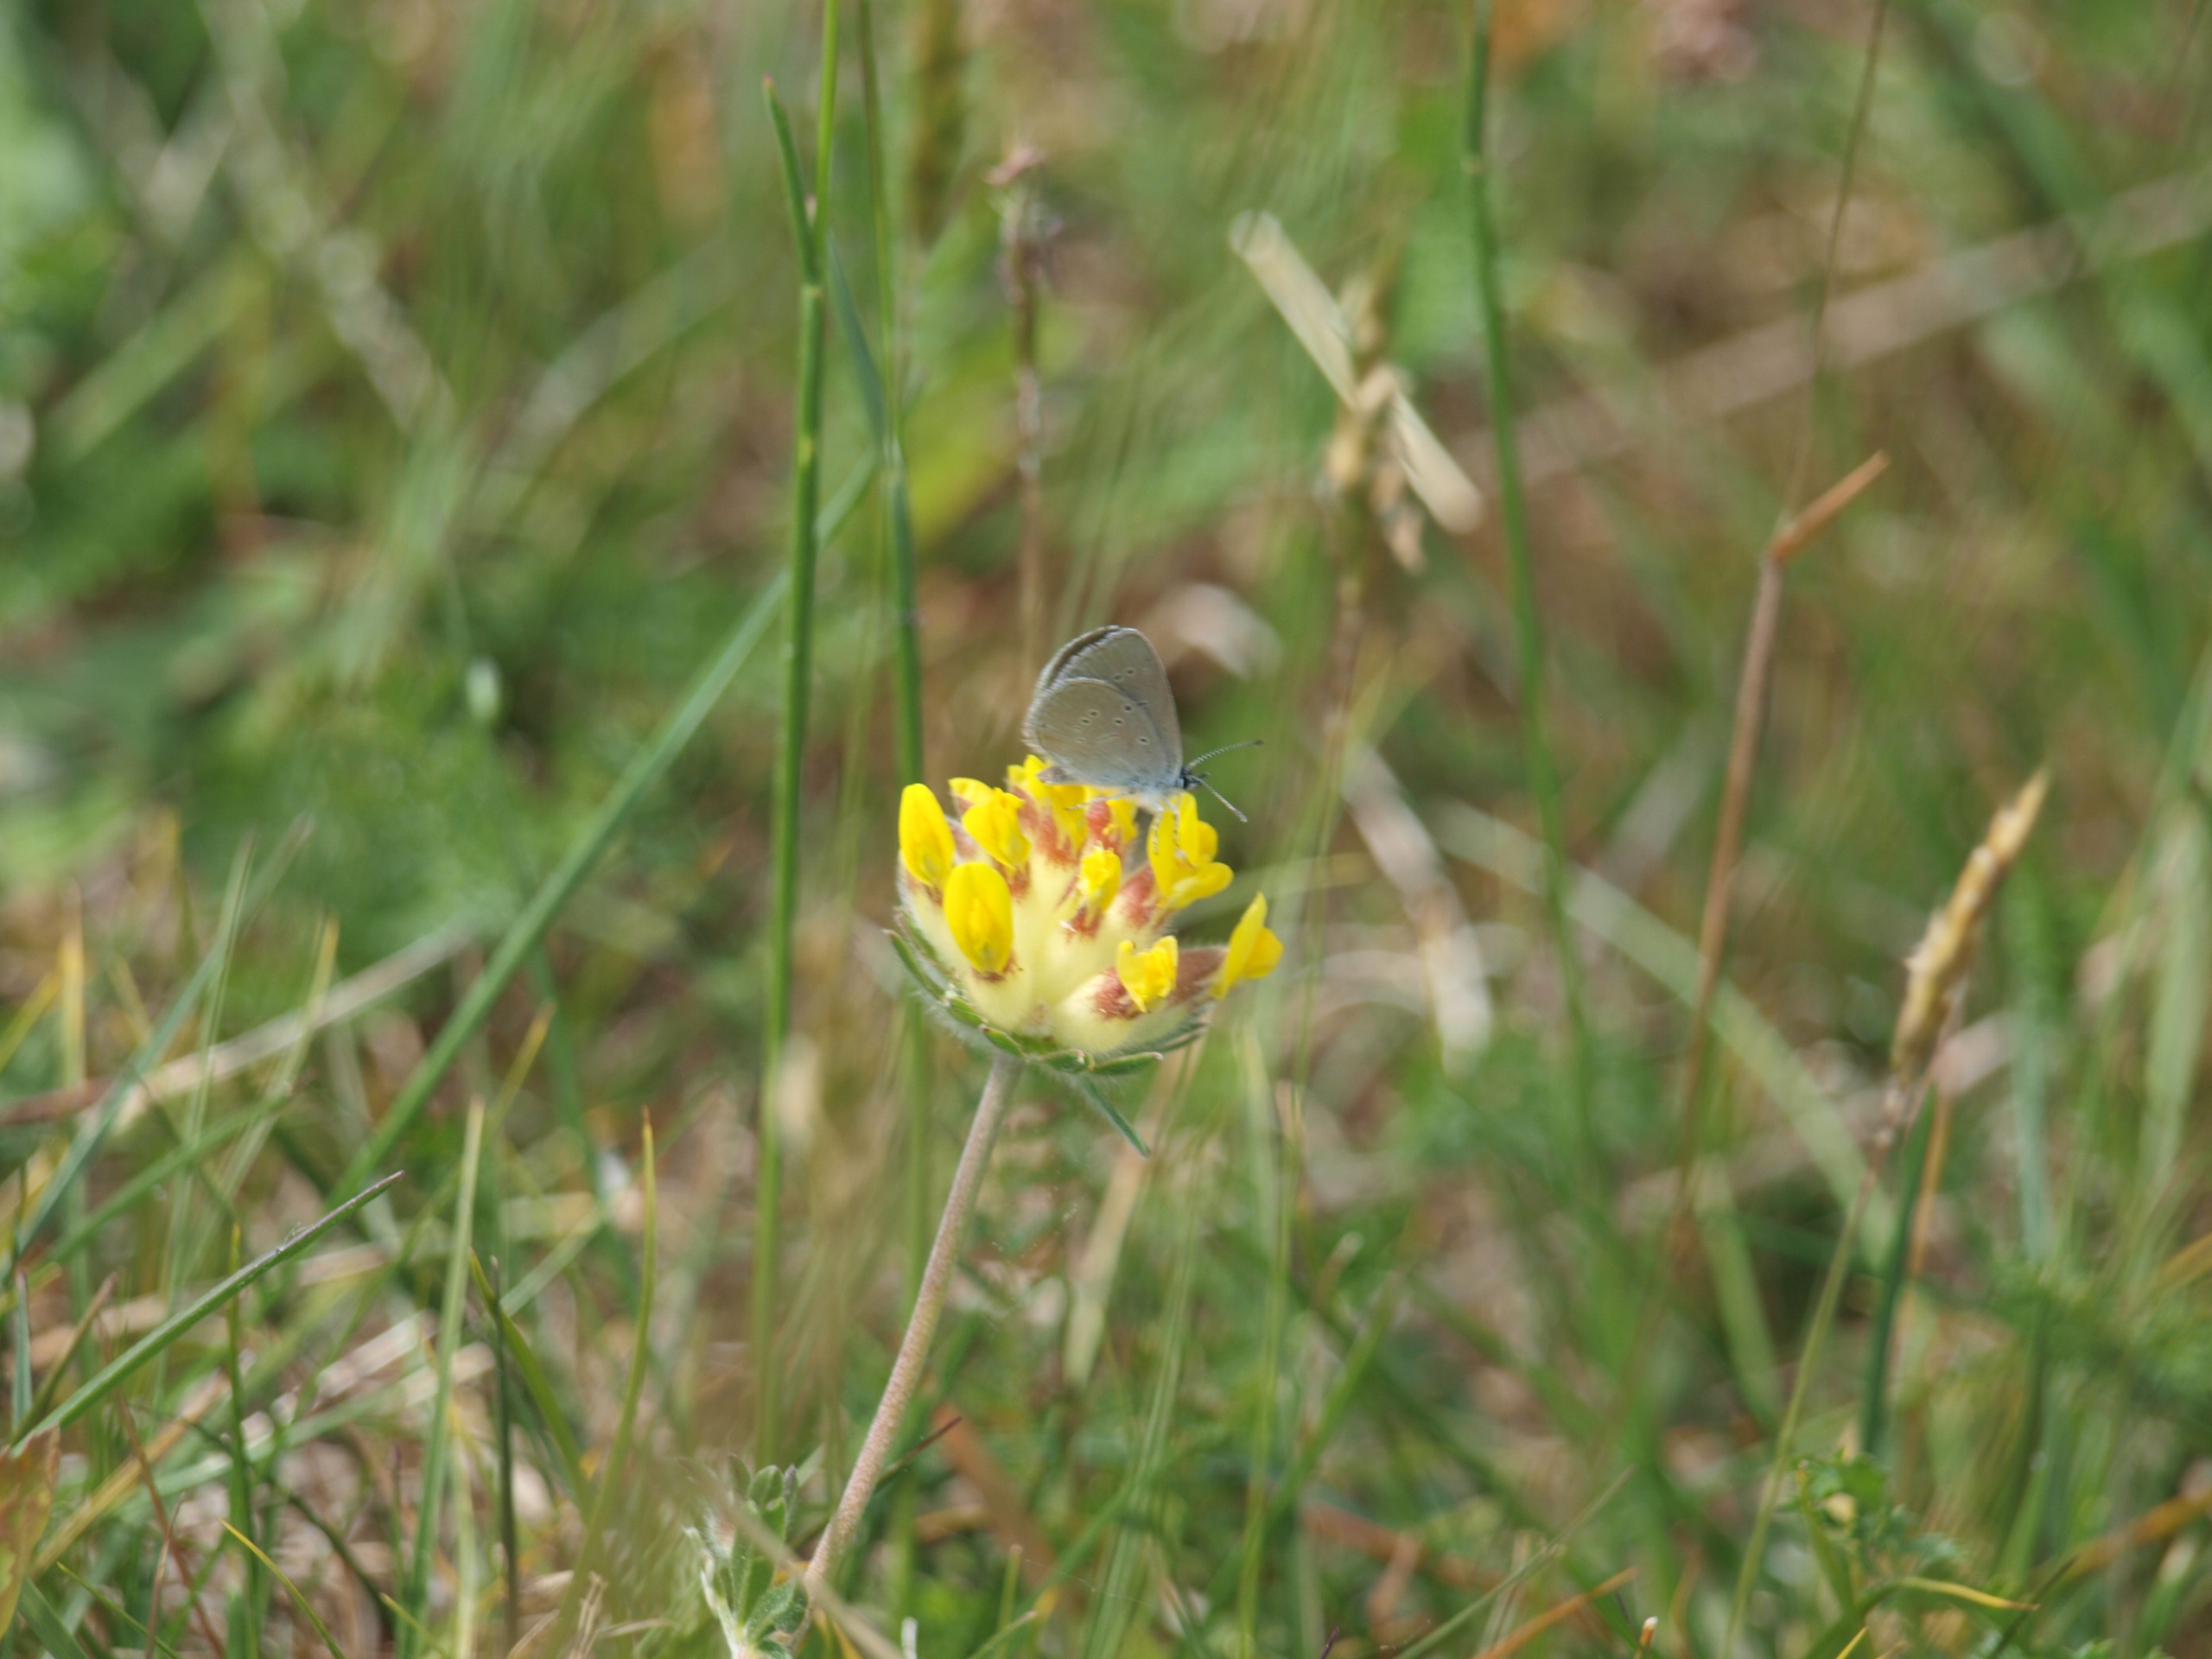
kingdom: Animalia
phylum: Arthropoda
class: Insecta
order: Lepidoptera
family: Lycaenidae
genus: Cupido
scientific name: Cupido minimus
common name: Dværgblåfugl
